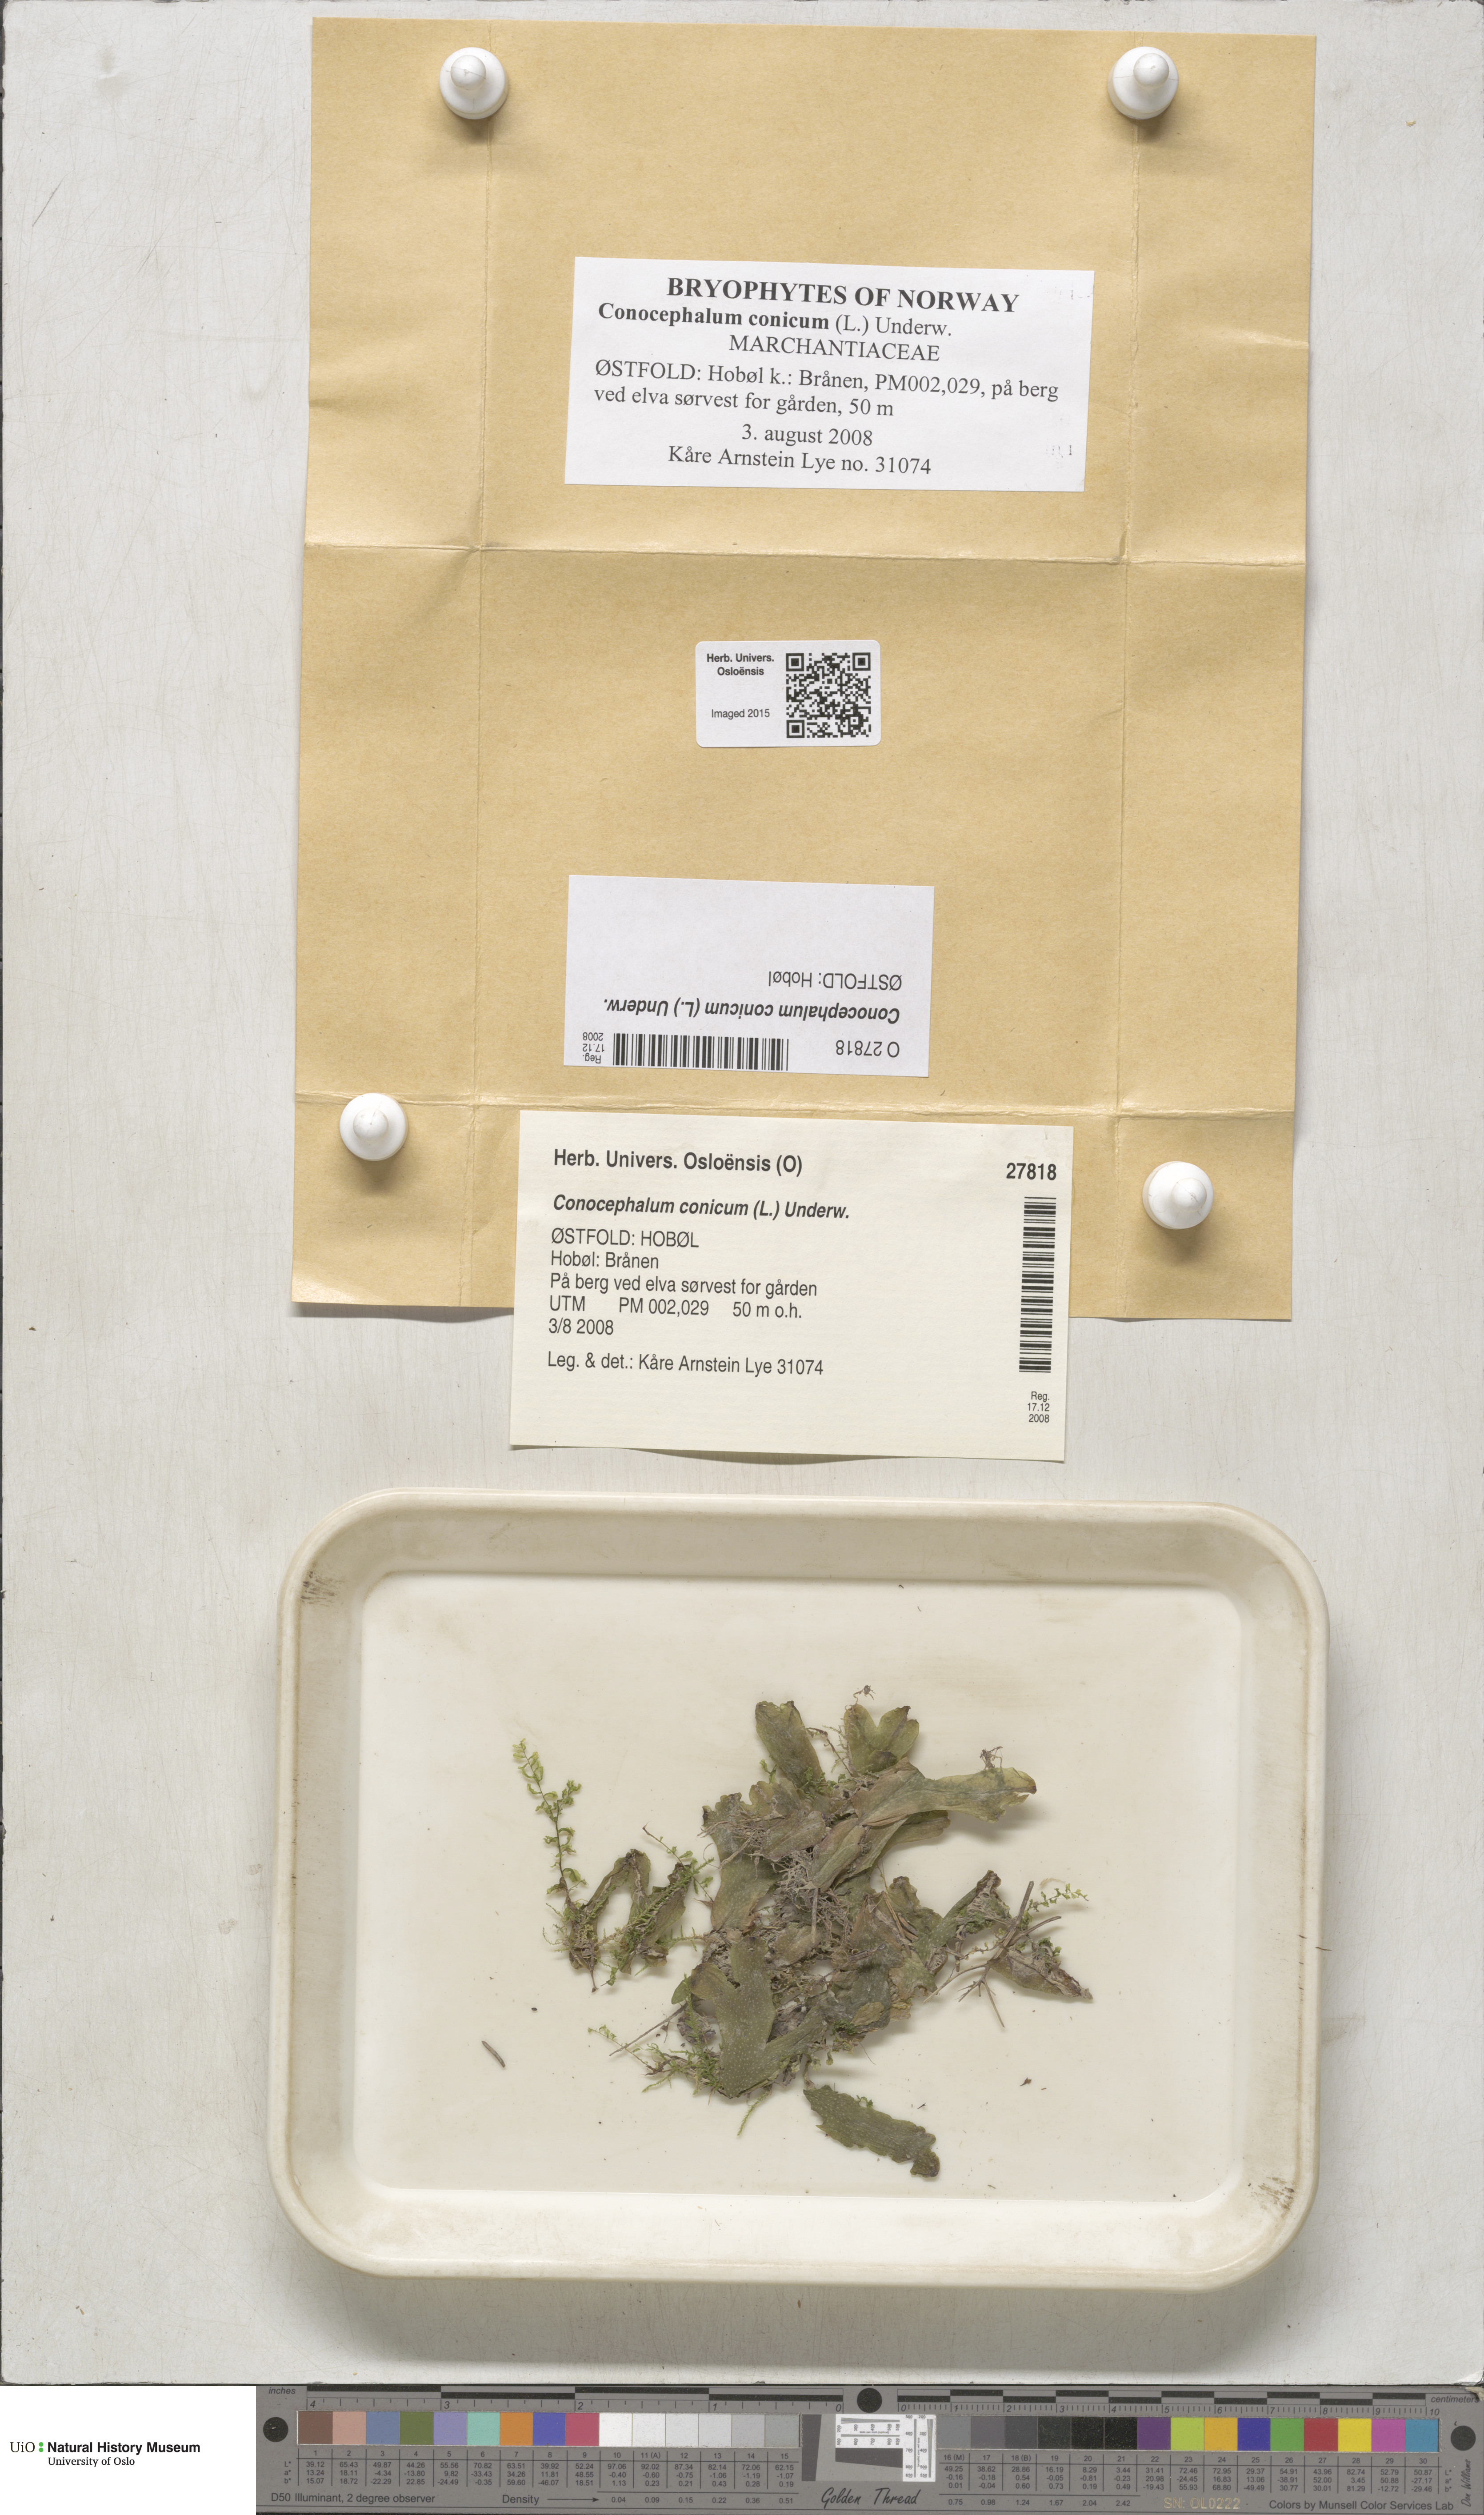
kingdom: Plantae
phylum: Marchantiophyta
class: Marchantiopsida
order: Marchantiales
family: Conocephalaceae
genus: Conocephalum
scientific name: Conocephalum conicum
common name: Great scented liverwort
